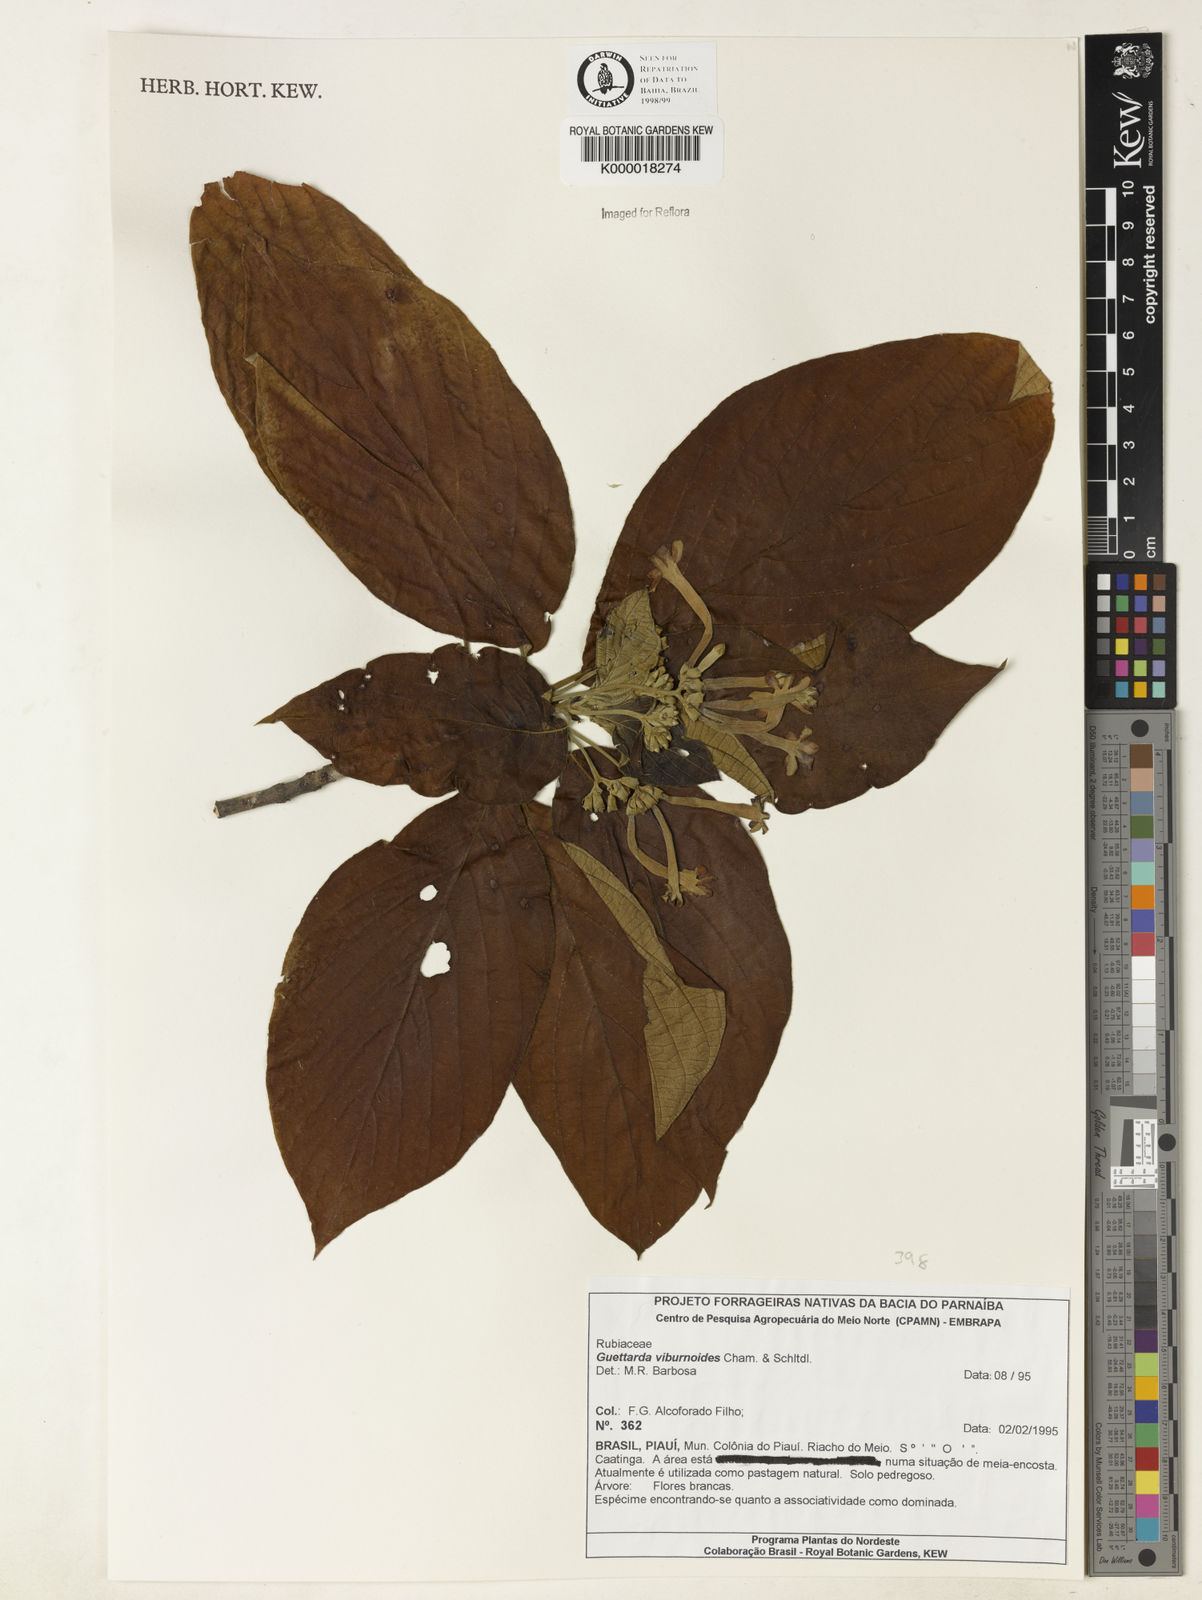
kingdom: Plantae
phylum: Tracheophyta
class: Magnoliopsida
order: Gentianales
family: Rubiaceae
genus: Guettarda
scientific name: Guettarda viburnoides
